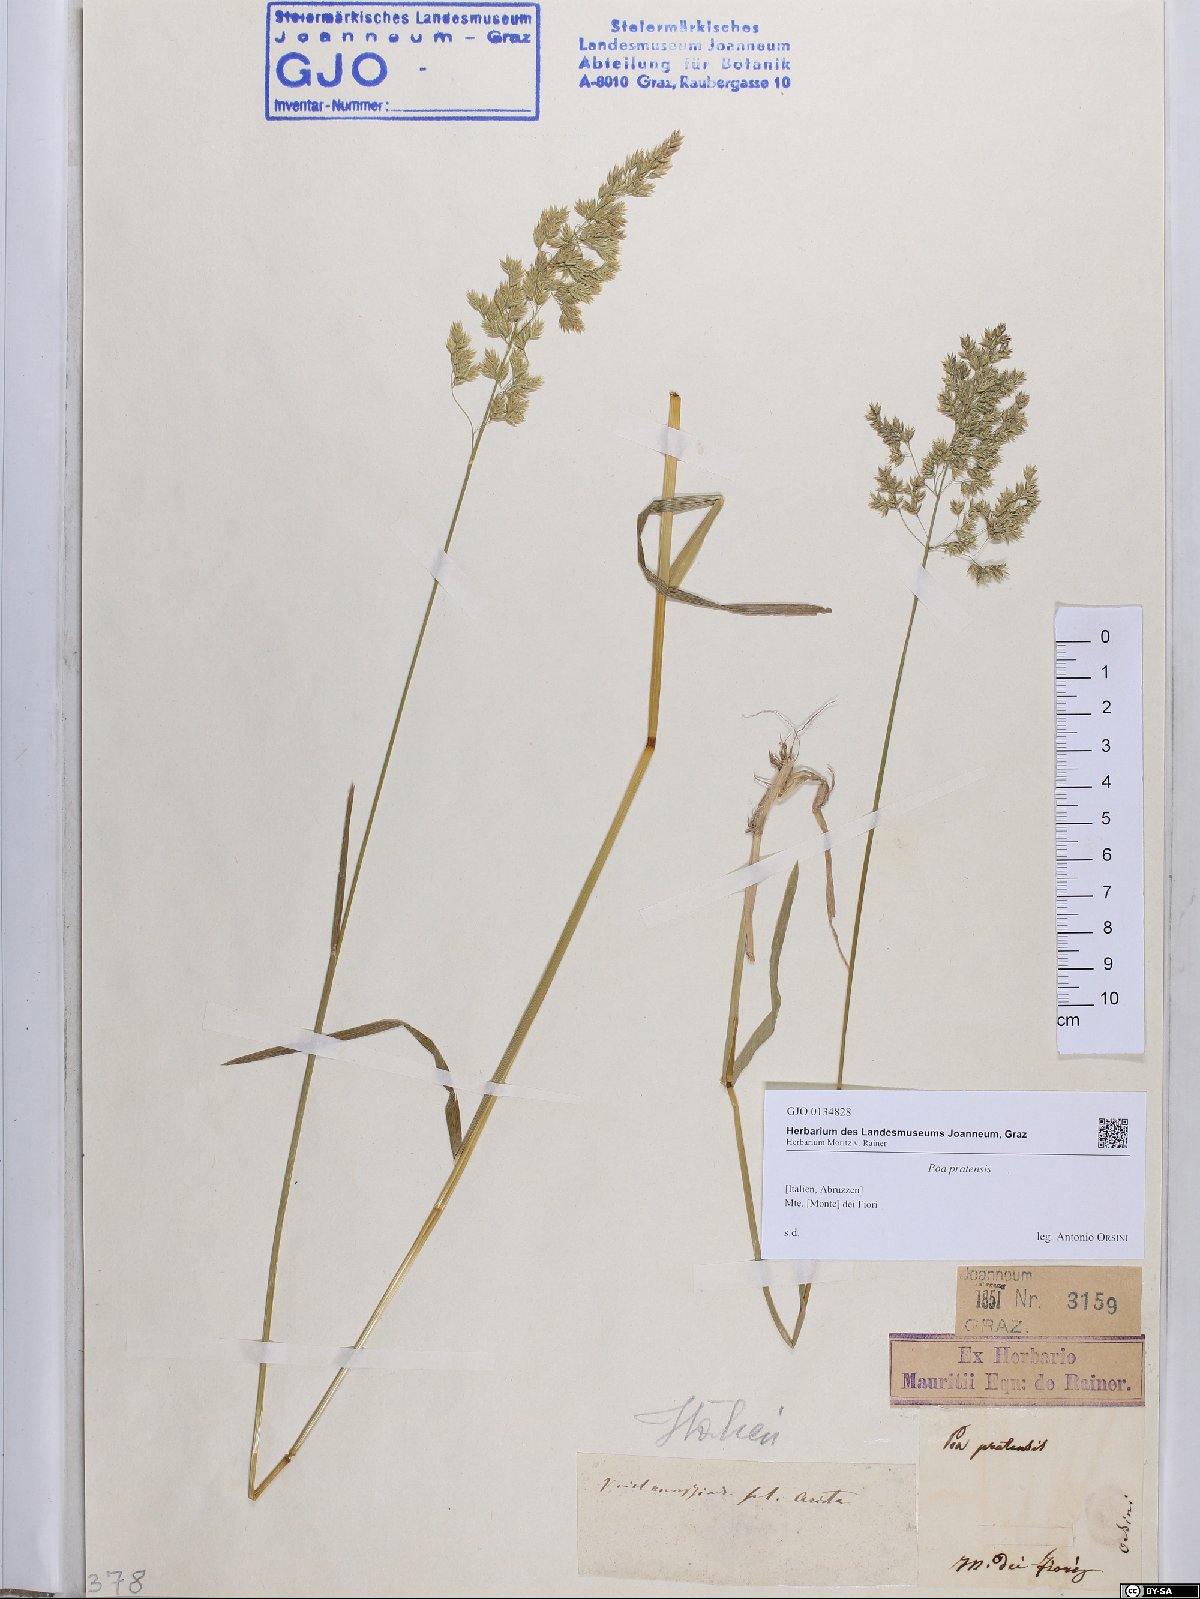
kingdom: Plantae
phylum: Tracheophyta
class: Liliopsida
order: Poales
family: Poaceae
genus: Poa
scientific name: Poa pratensis
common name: Kentucky bluegrass
